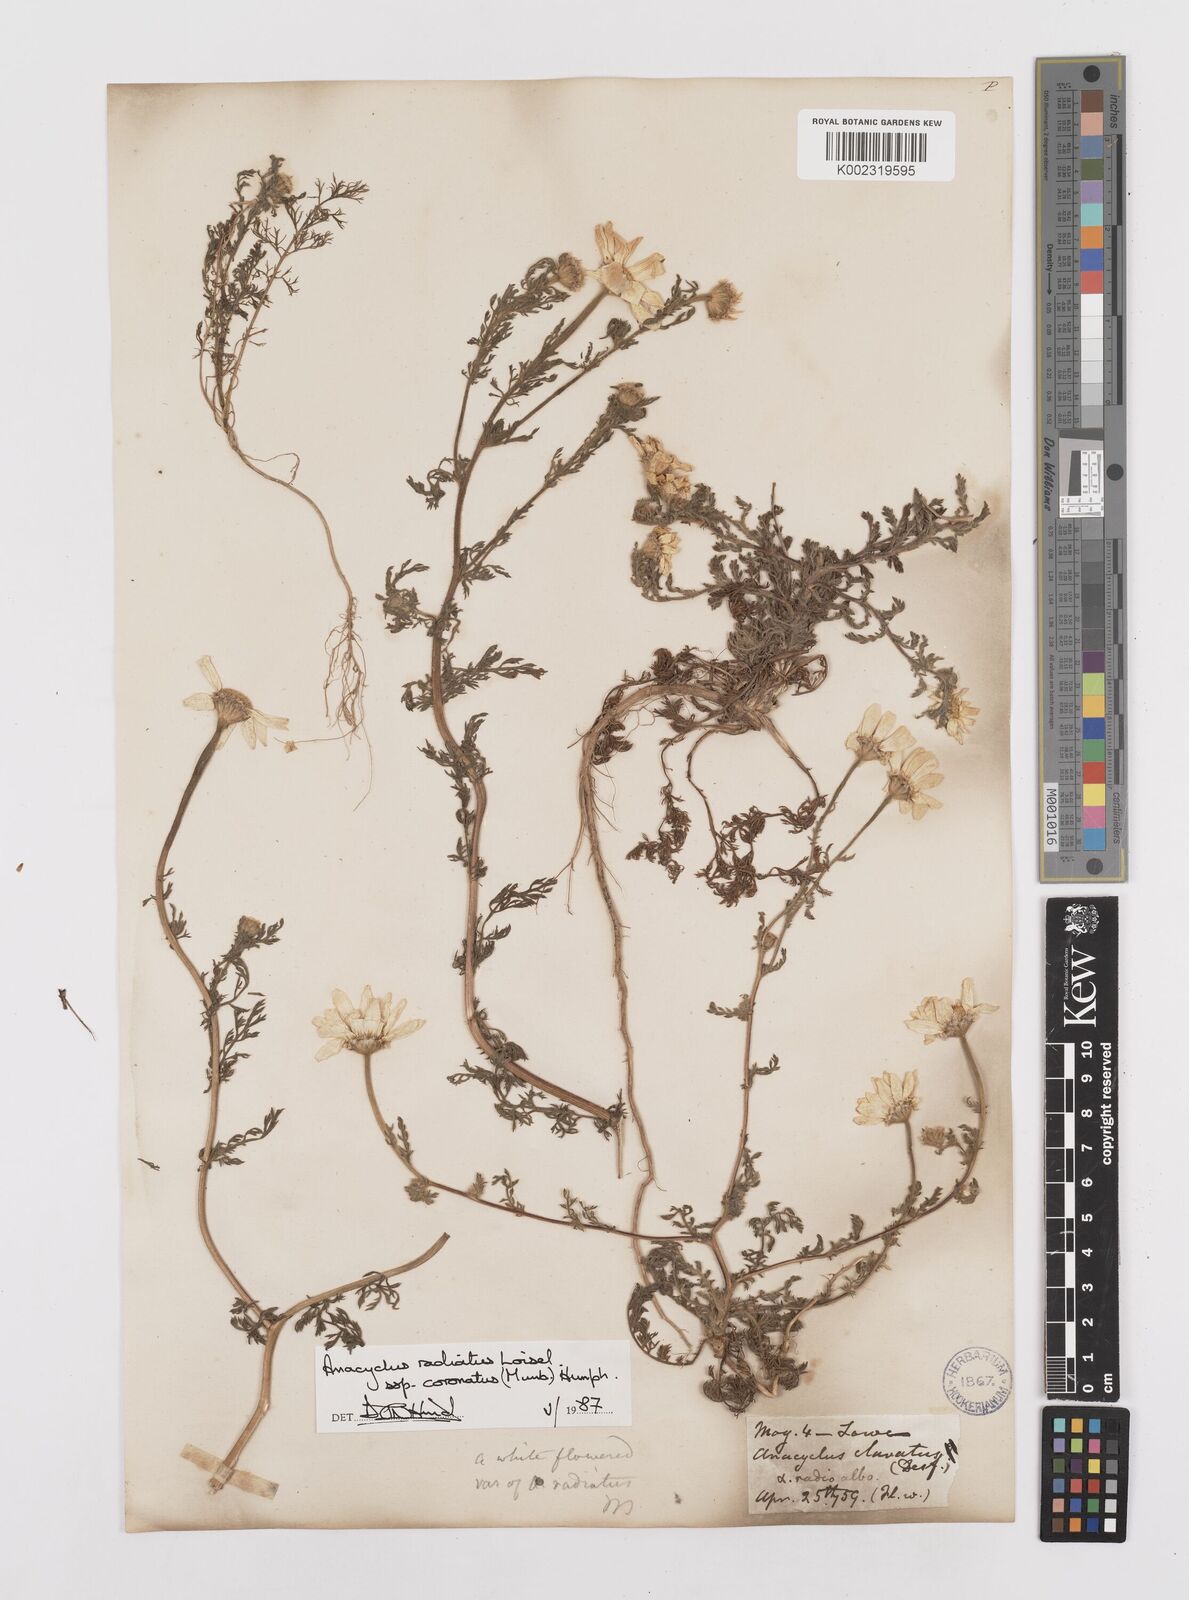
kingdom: Plantae
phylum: Tracheophyta
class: Magnoliopsida
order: Asterales
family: Asteraceae
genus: Anacyclus
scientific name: Anacyclus radiatus
